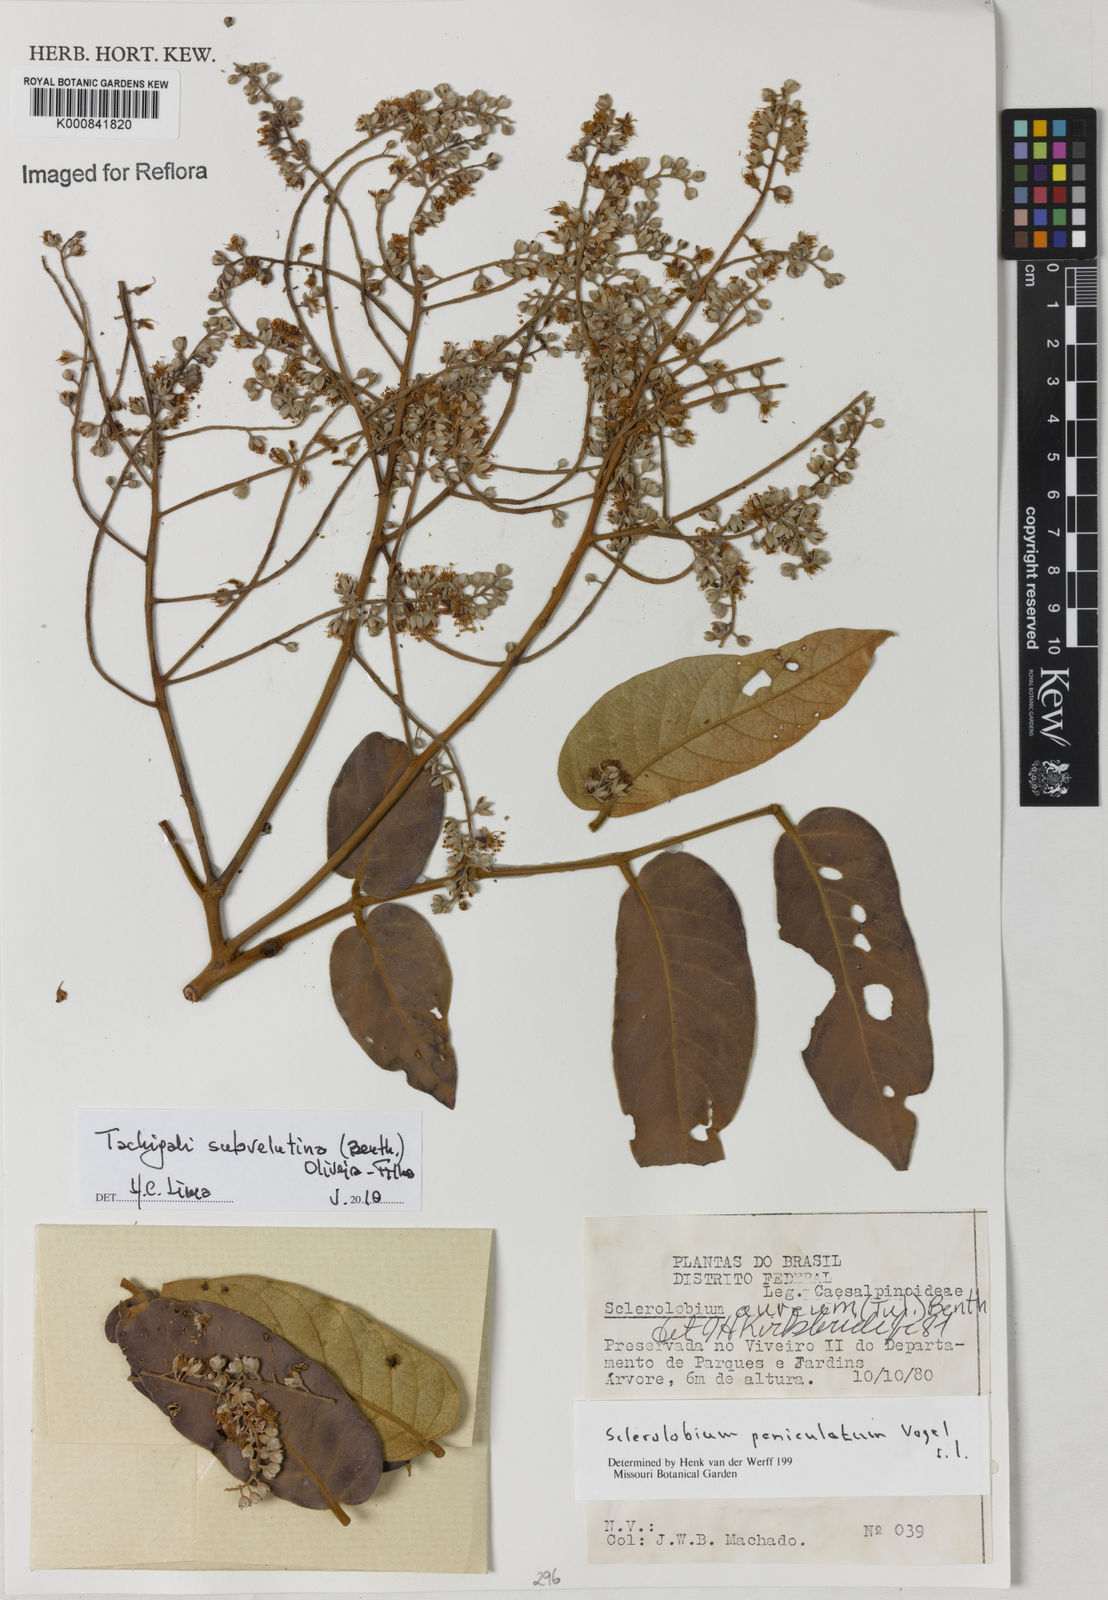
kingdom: Plantae
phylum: Tracheophyta
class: Magnoliopsida
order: Fabales
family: Fabaceae
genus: Tachigali
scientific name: Tachigali subvelutina
